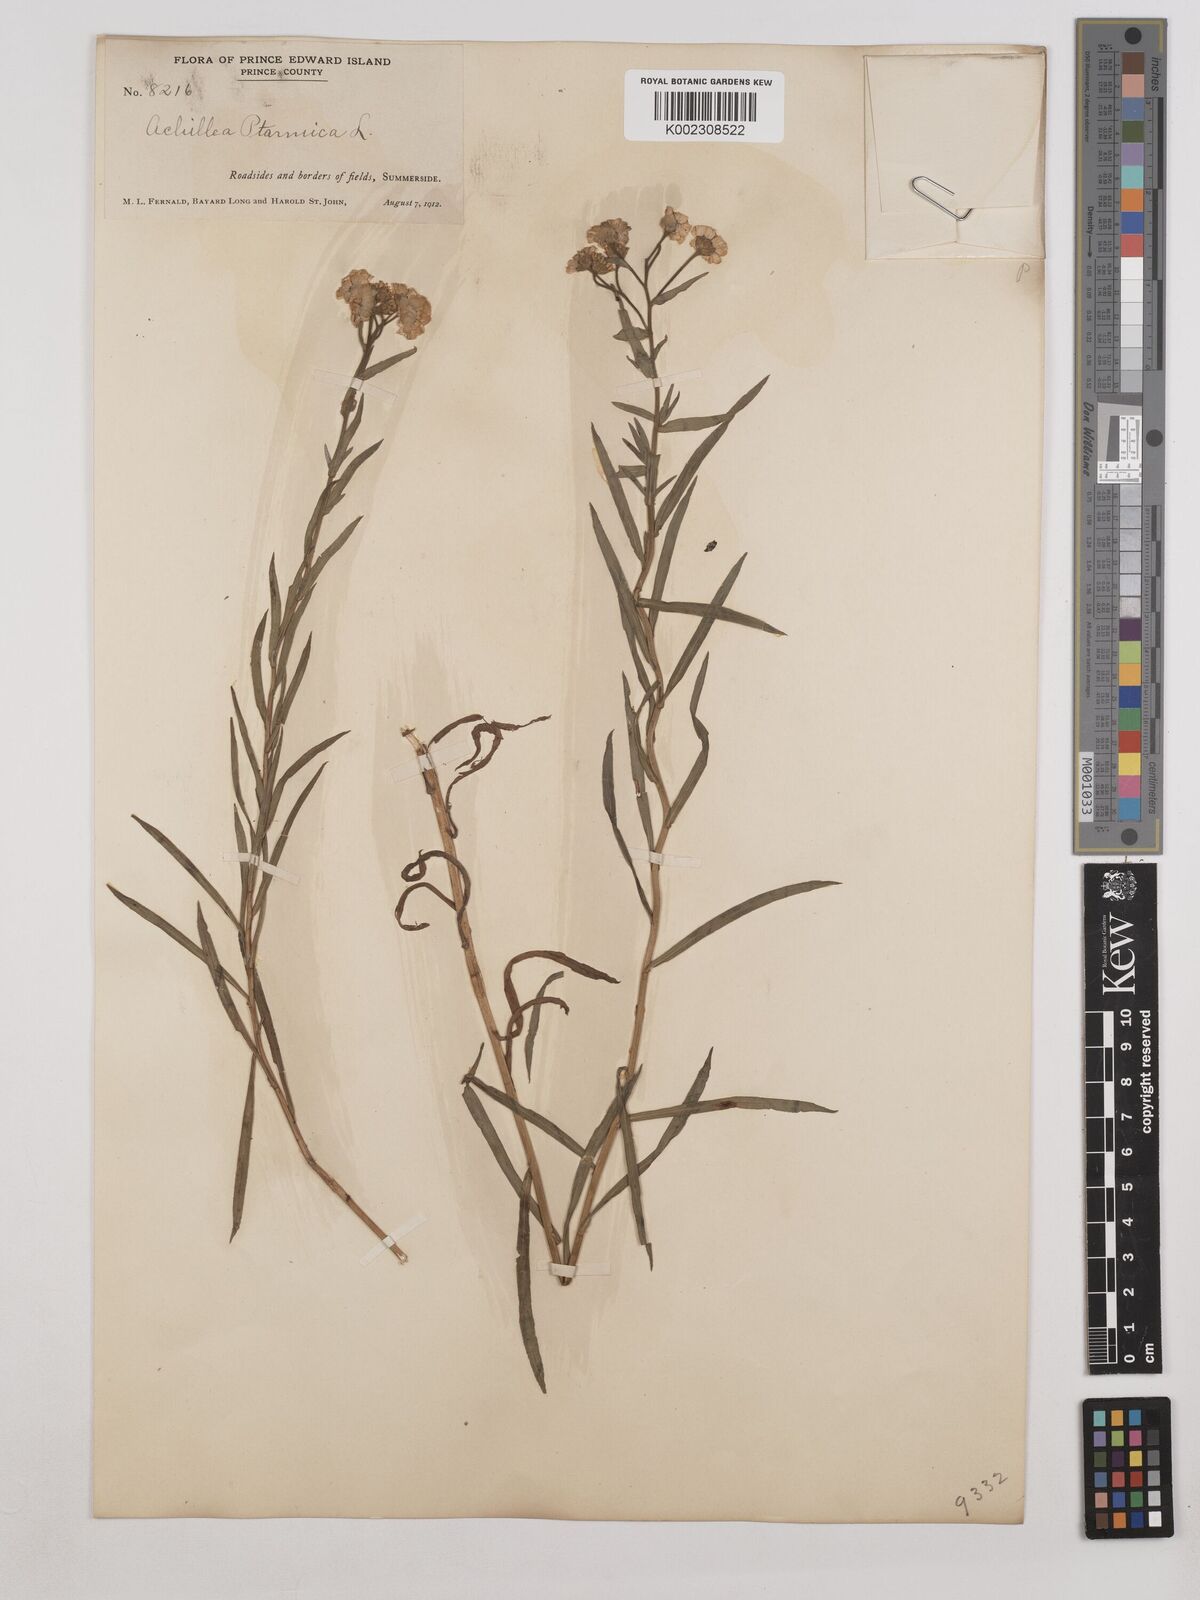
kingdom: Plantae
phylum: Tracheophyta
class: Magnoliopsida
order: Asterales
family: Asteraceae
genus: Achillea
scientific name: Achillea ptarmica
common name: Sneezeweed
